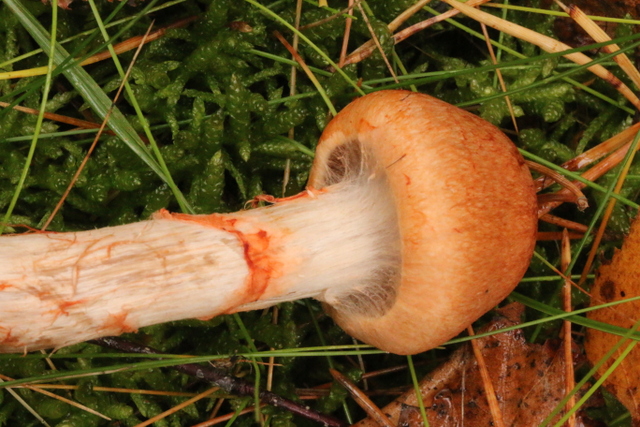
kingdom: Fungi
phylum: Basidiomycota
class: Agaricomycetes
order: Agaricales
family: Cortinariaceae
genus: Cortinarius
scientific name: Cortinarius armillatus
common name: cinnoberbæltet slørhat
